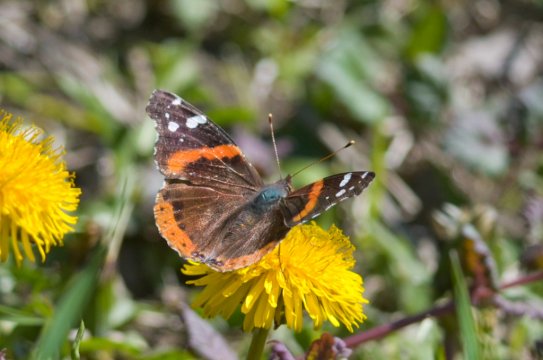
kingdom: Animalia
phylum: Arthropoda
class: Insecta
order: Lepidoptera
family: Nymphalidae
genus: Vanessa
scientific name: Vanessa atalanta
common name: Red Admiral
